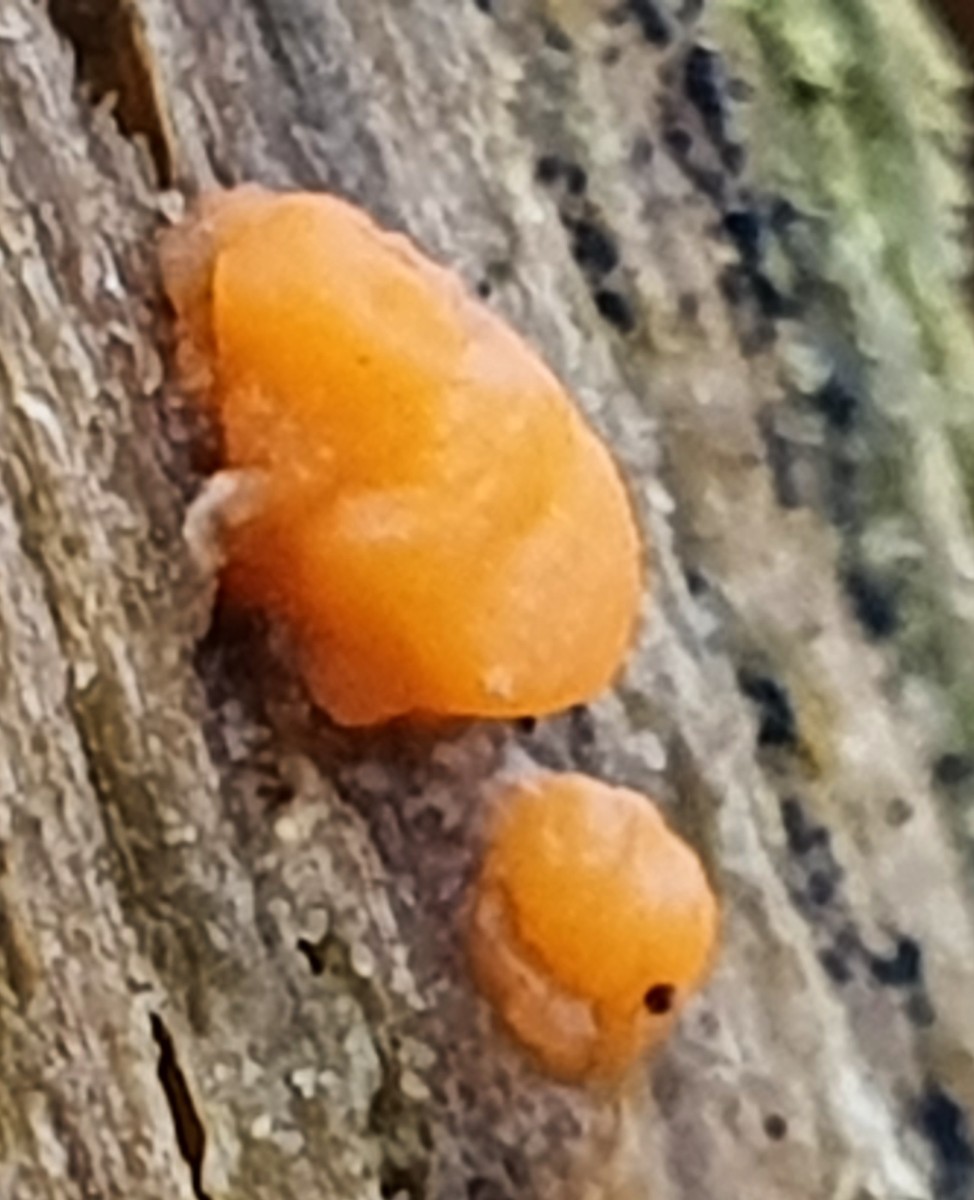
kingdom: Fungi
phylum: Basidiomycota
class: Dacrymycetes
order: Dacrymycetales
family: Dacrymycetaceae
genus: Dacrymyces
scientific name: Dacrymyces stillatus
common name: almindelig tåresvamp
